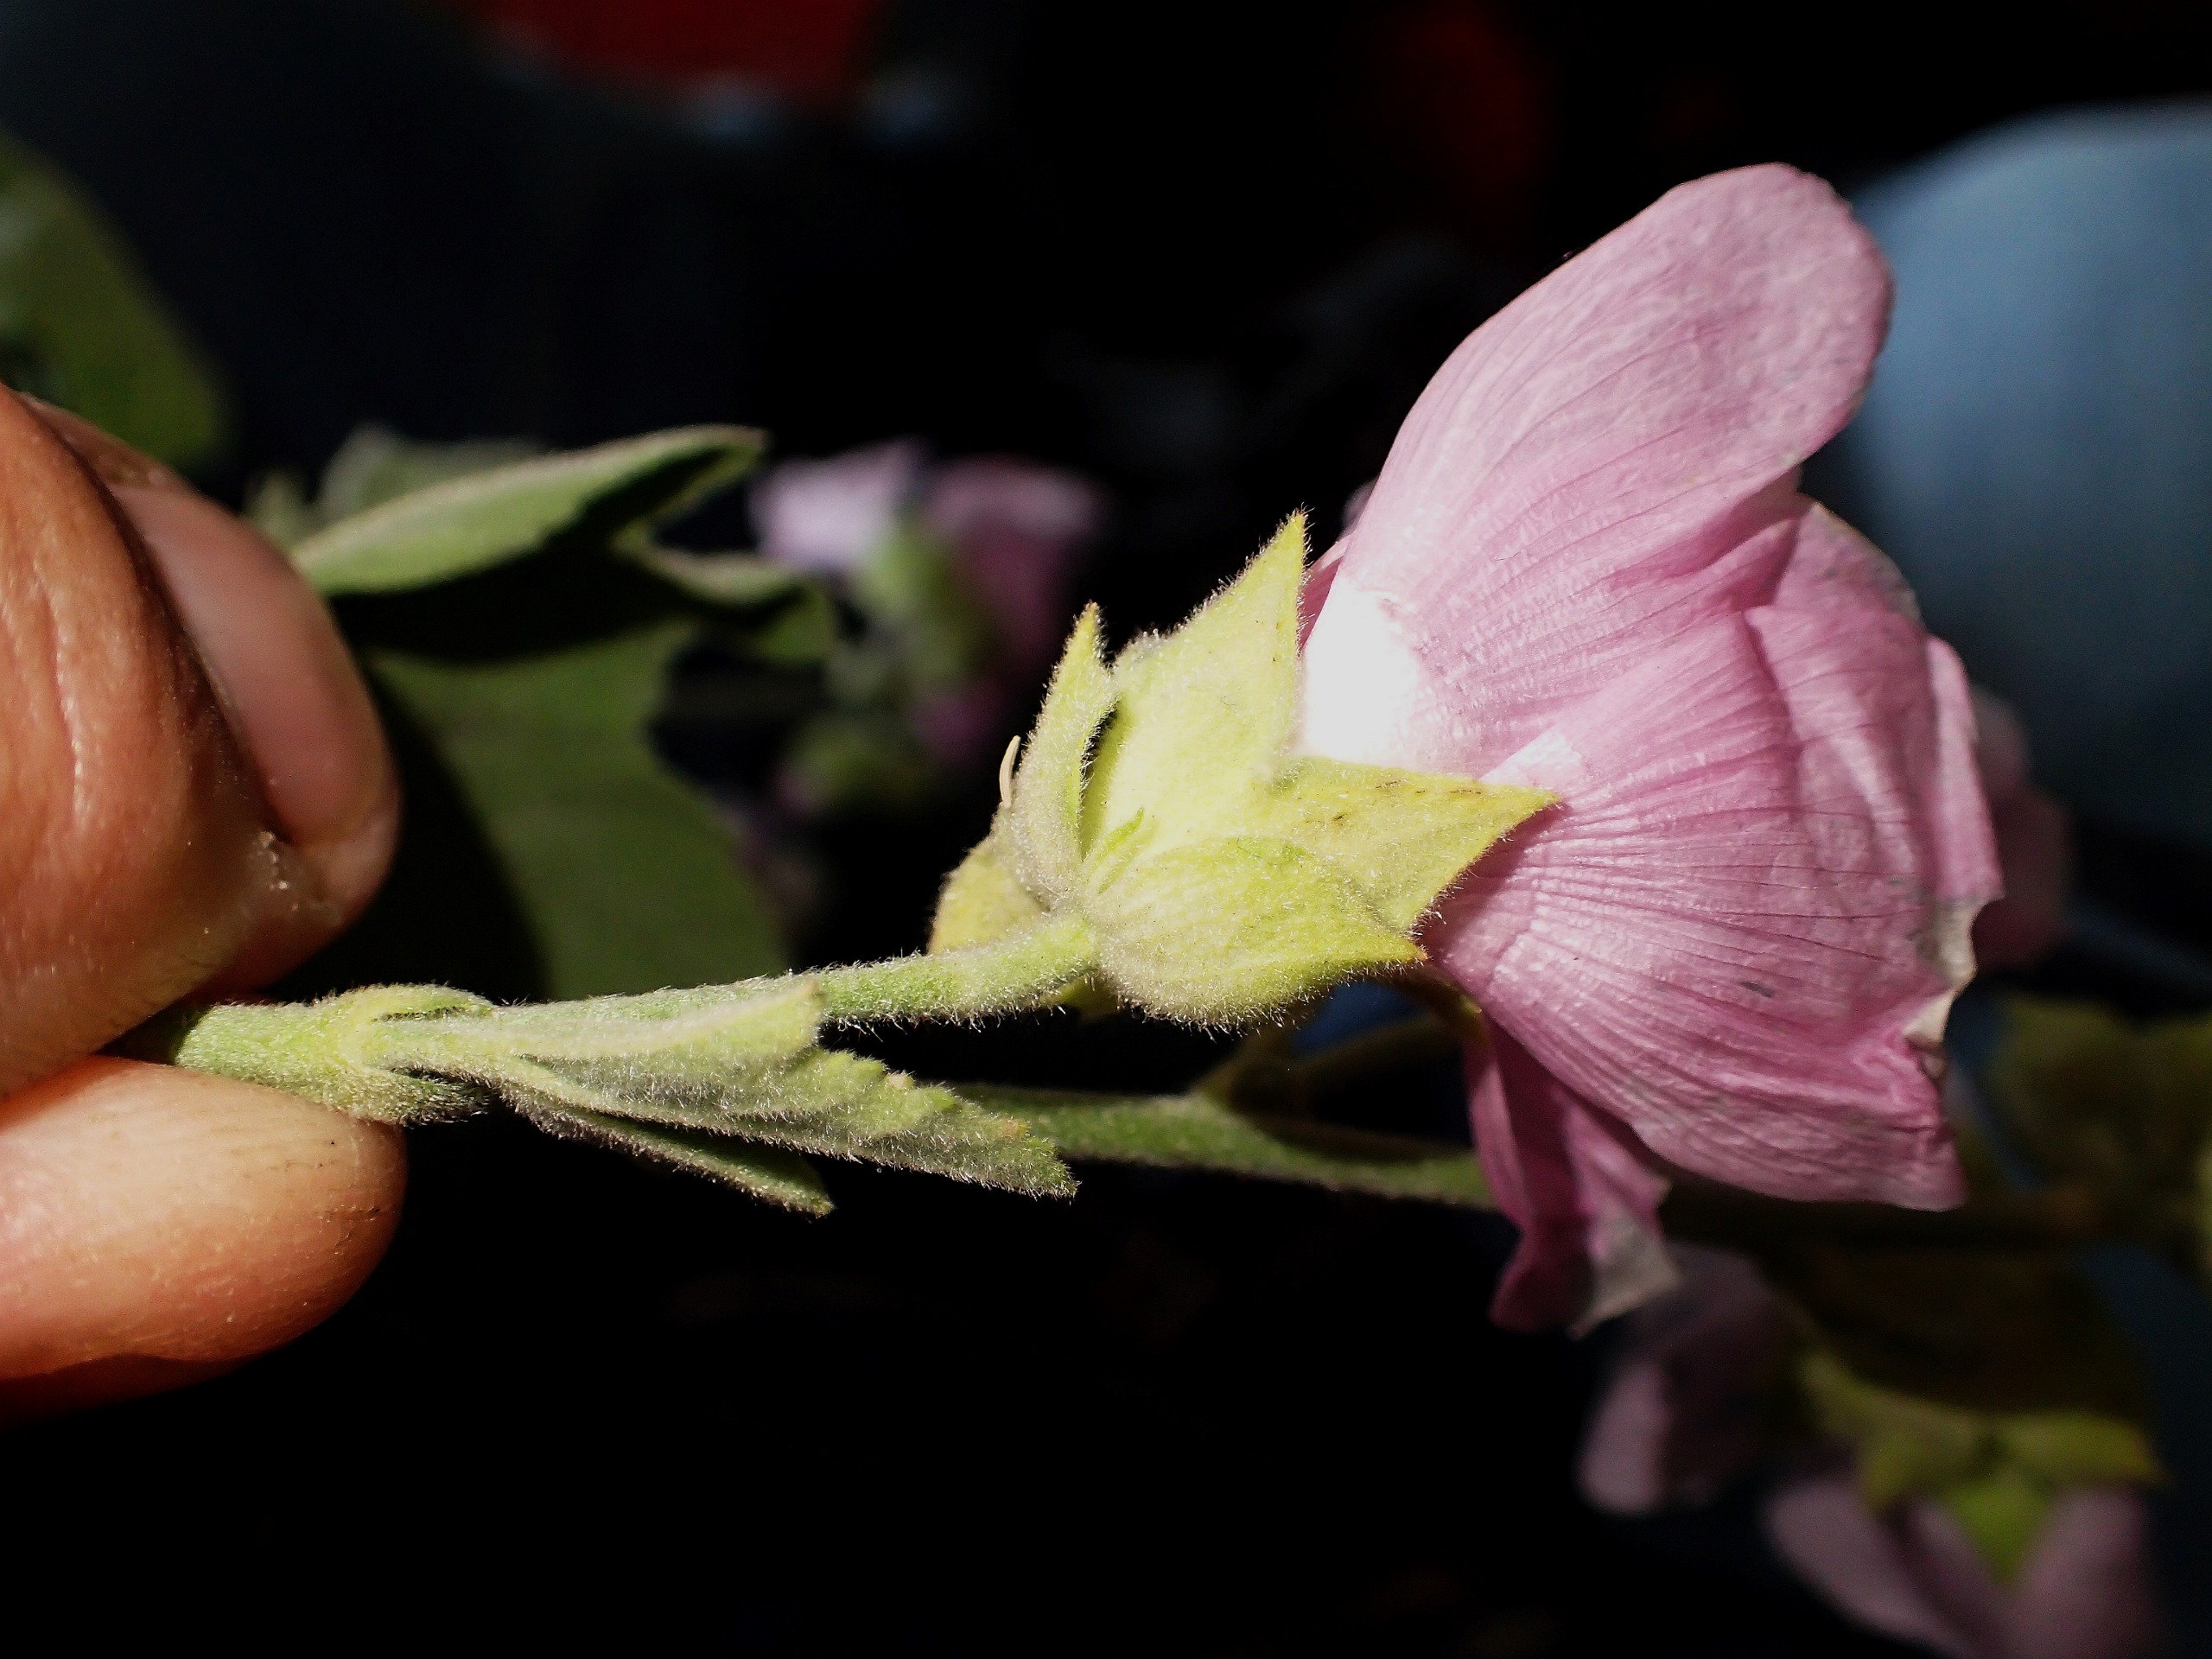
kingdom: Plantae
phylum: Tracheophyta
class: Magnoliopsida
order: Malvales
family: Malvaceae
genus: Malva
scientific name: Malva thuringiaca
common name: Tysk poppelrose
